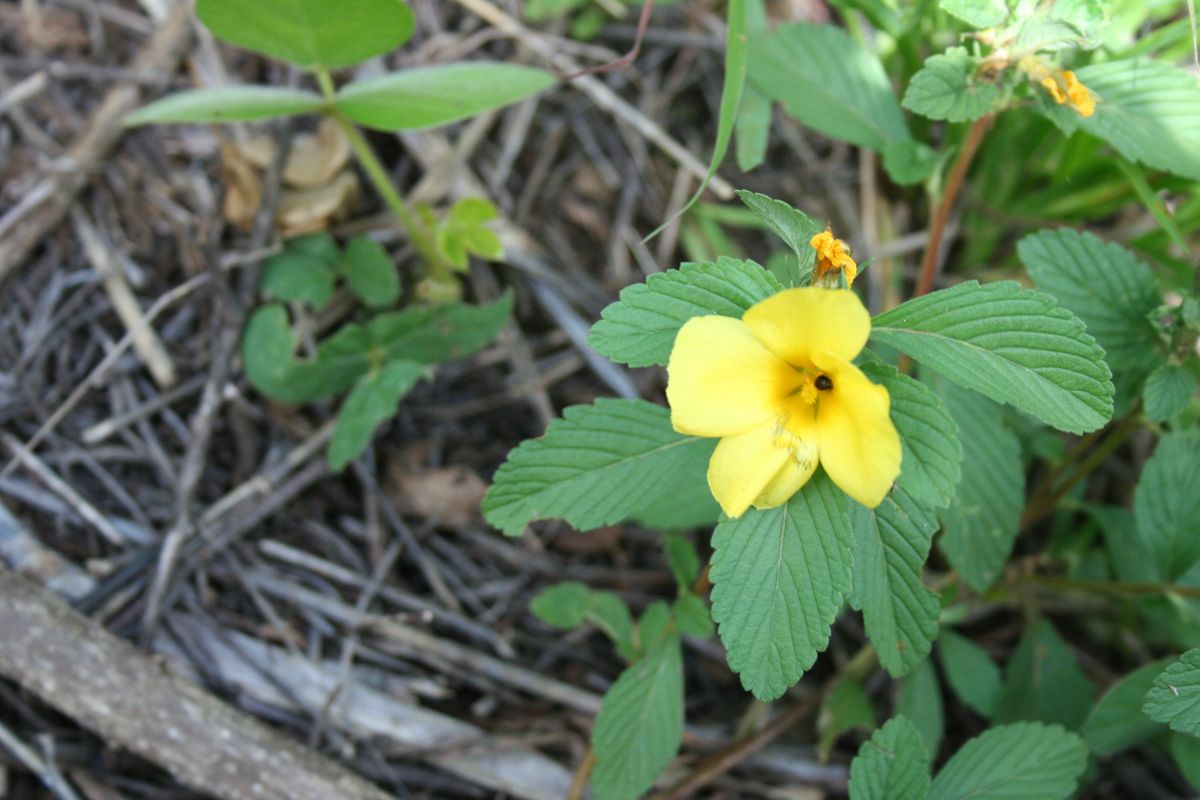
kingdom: Plantae
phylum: Tracheophyta
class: Magnoliopsida
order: Malpighiales
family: Turneraceae
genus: Turnera
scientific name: Turnera ulmifolia
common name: Ramgoat dashalong
